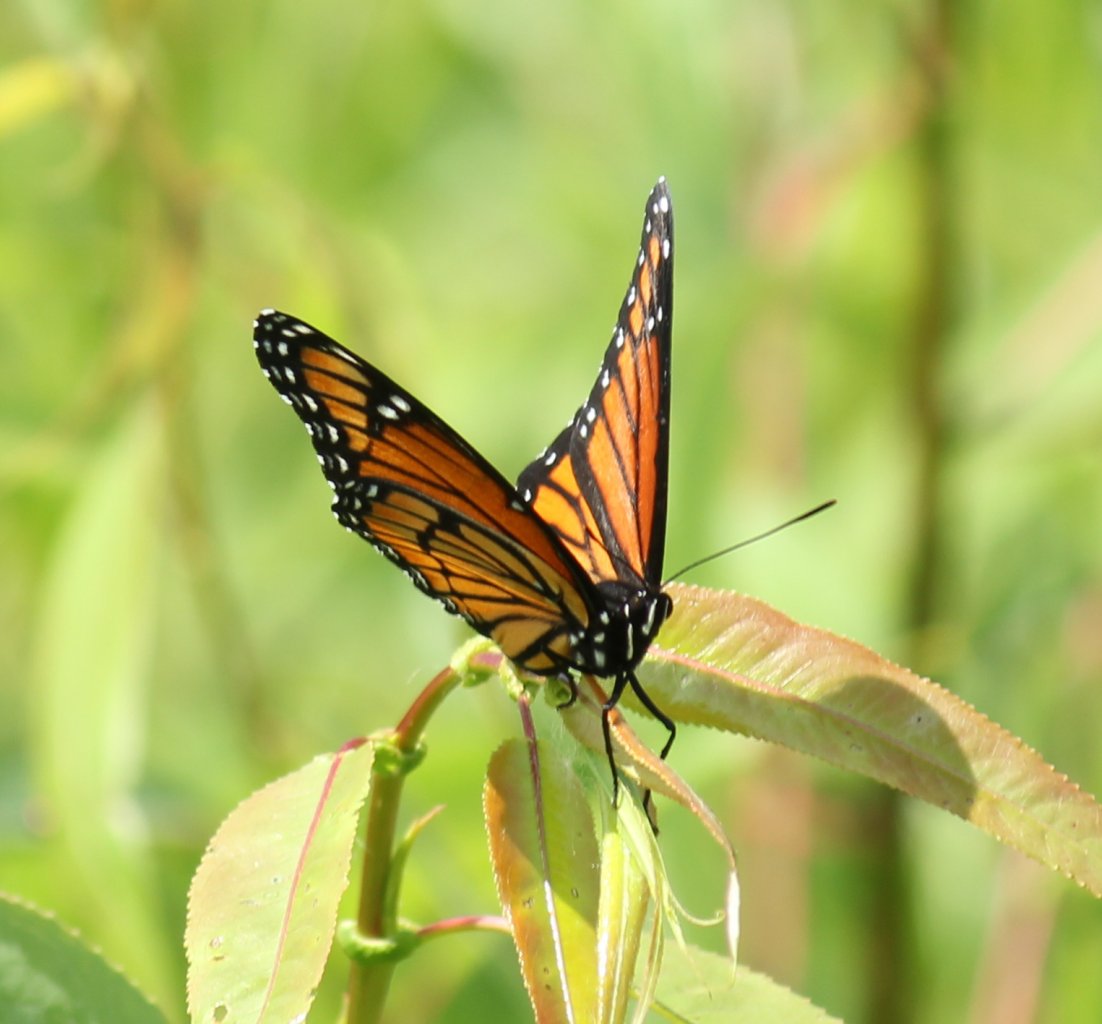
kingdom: Animalia
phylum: Arthropoda
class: Insecta
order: Lepidoptera
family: Nymphalidae
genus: Limenitis
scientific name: Limenitis archippus
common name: Viceroy
